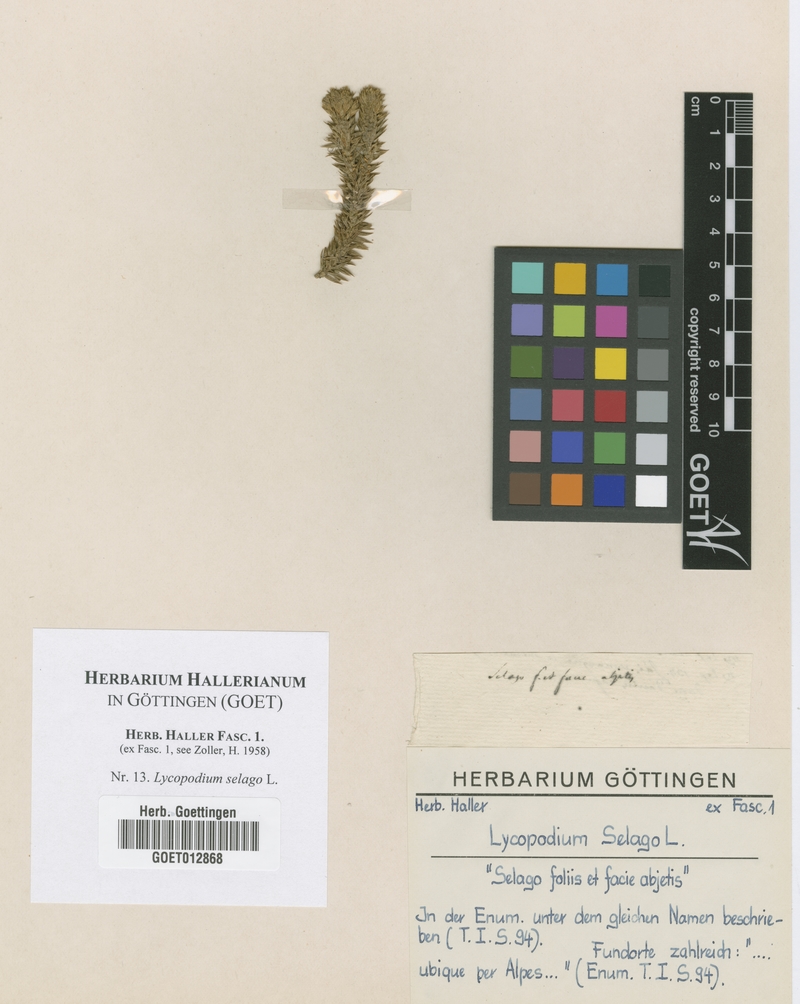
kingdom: Plantae
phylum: Tracheophyta
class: Lycopodiopsida
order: Lycopodiales
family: Lycopodiaceae
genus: Huperzia
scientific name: Huperzia selago
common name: Northern firmoss
